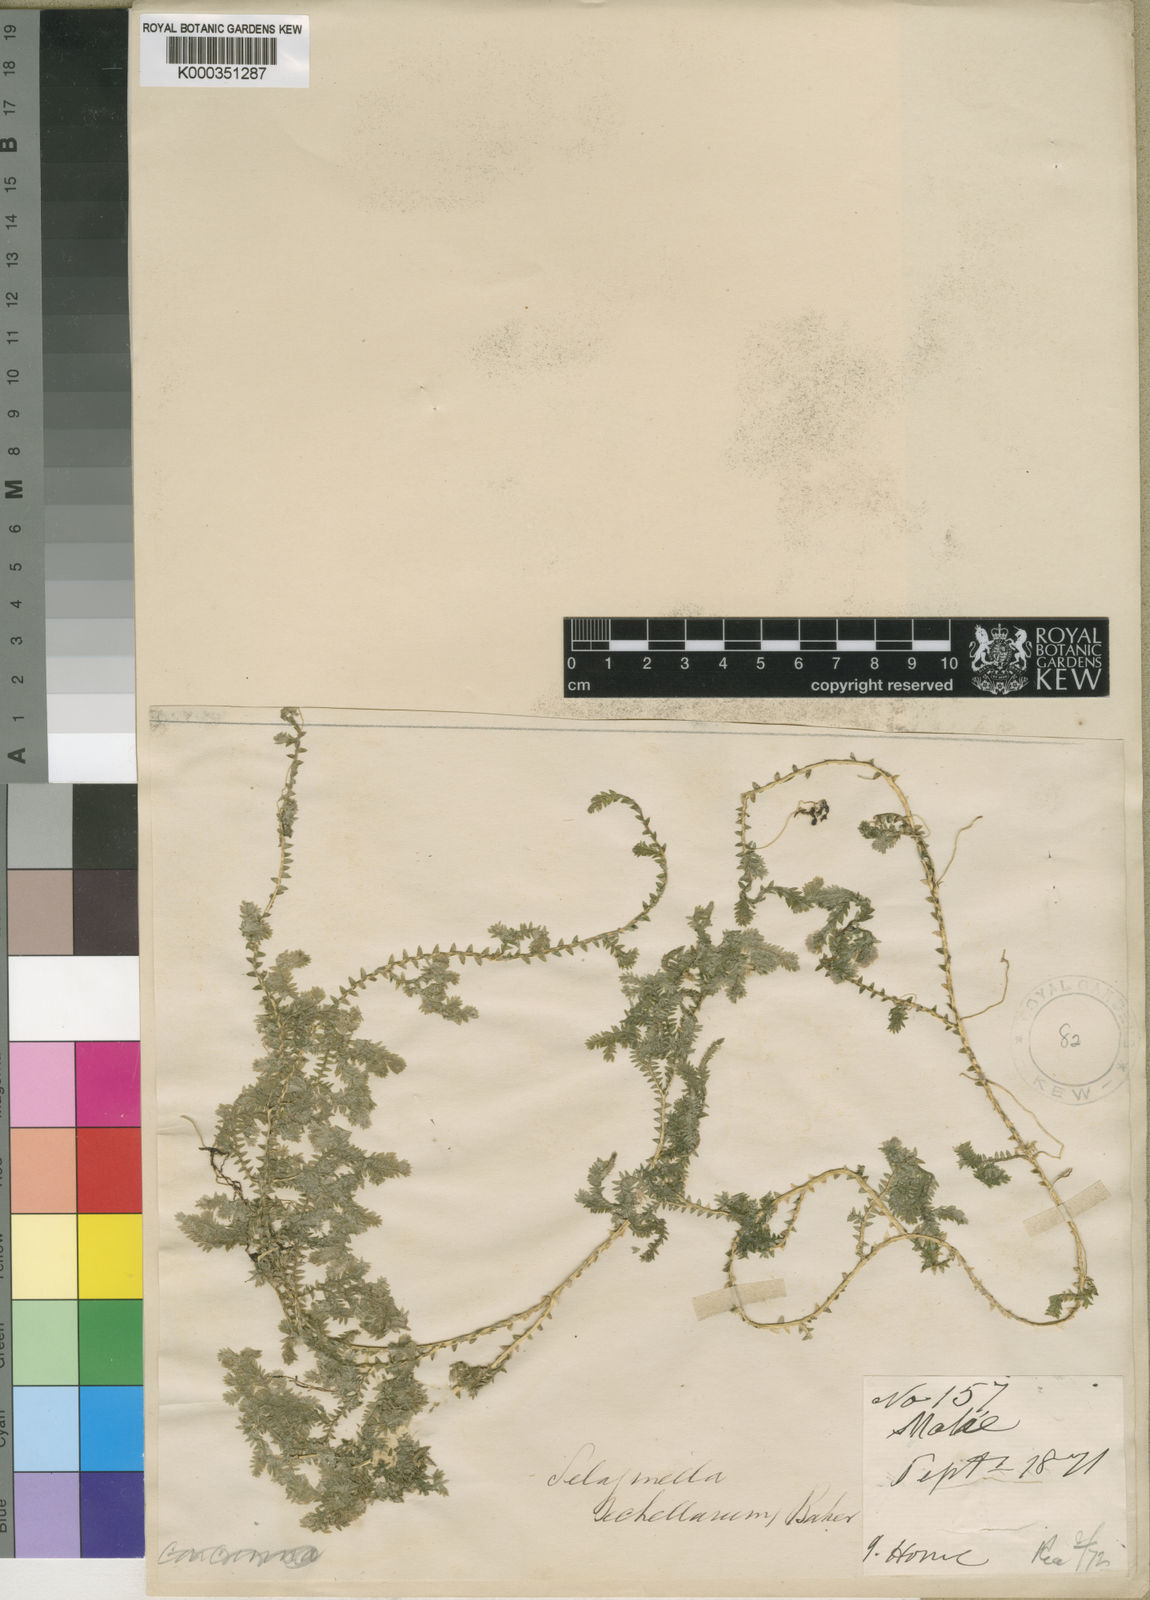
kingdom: Plantae
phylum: Tracheophyta
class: Lycopodiopsida
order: Selaginellales
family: Selaginellaceae
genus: Selaginella
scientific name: Selaginella sechellarum
